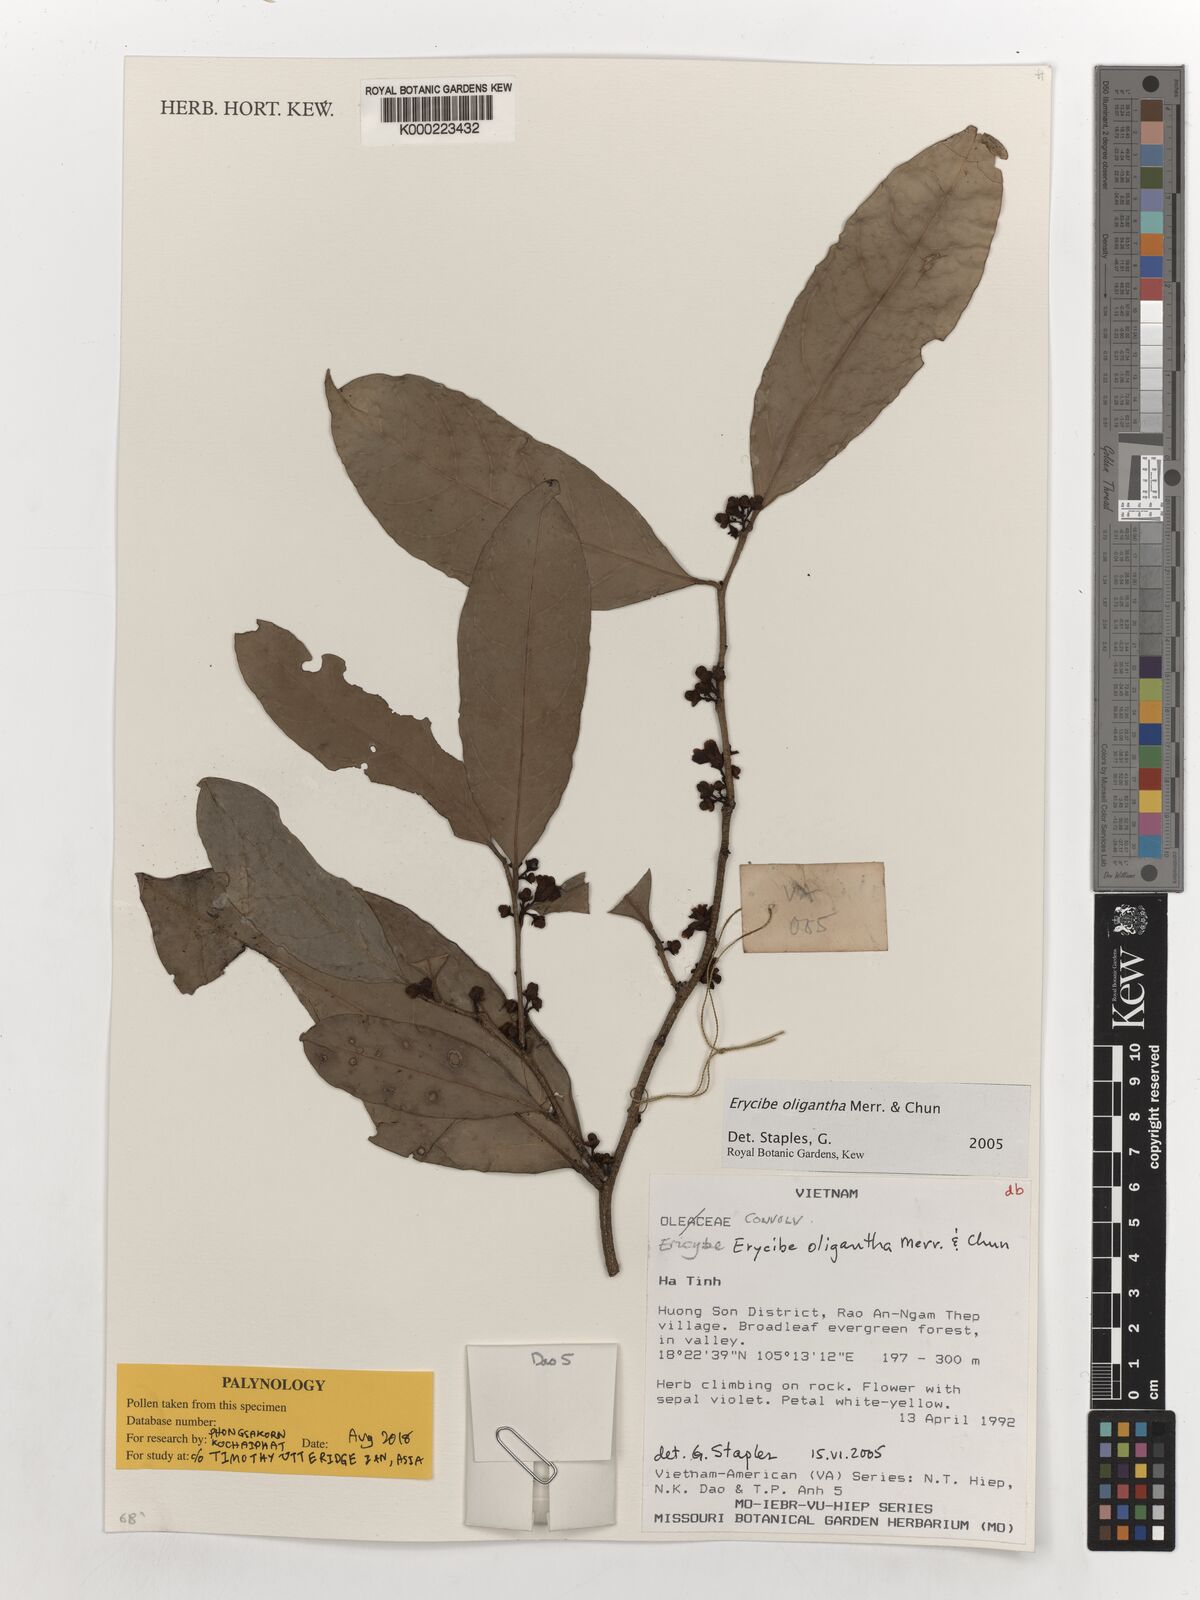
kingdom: Plantae
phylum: Tracheophyta
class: Magnoliopsida
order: Solanales
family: Convolvulaceae
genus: Erycibe
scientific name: Erycibe oligantha
